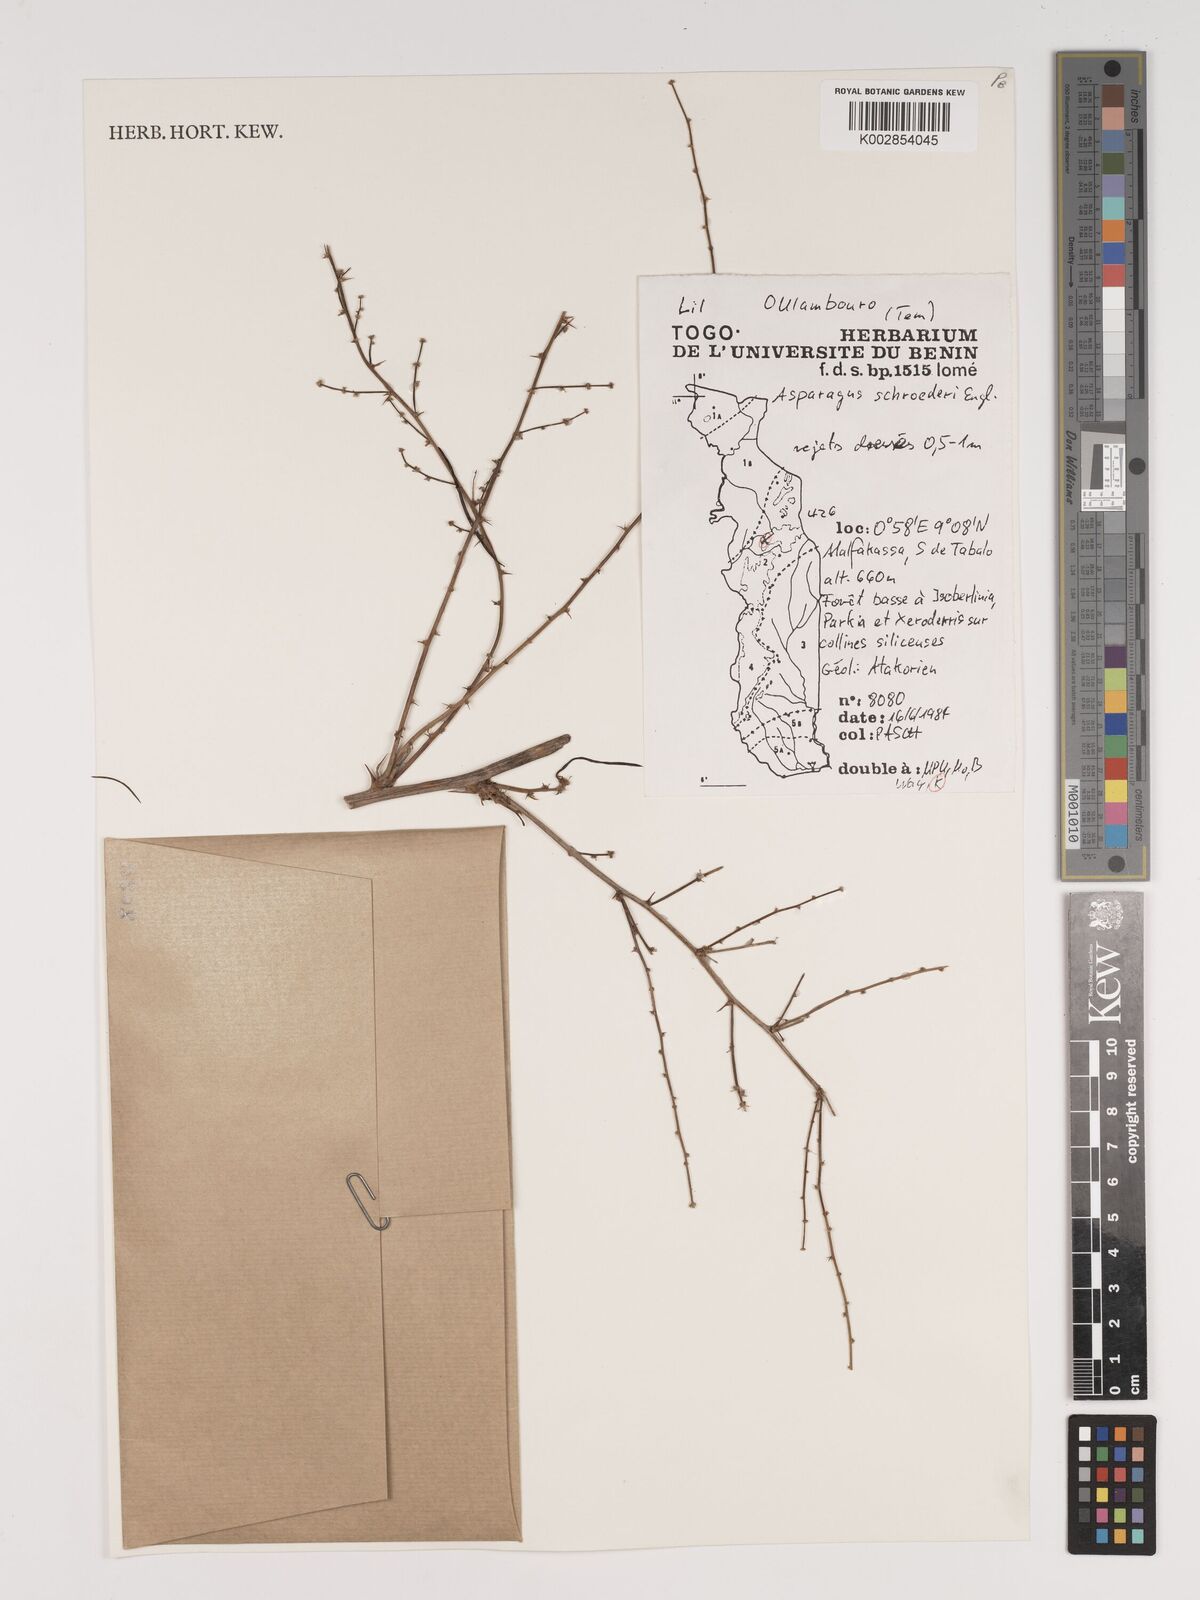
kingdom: Plantae
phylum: Tracheophyta
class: Liliopsida
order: Asparagales
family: Asparagaceae
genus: Asparagus
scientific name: Asparagus schroederi
